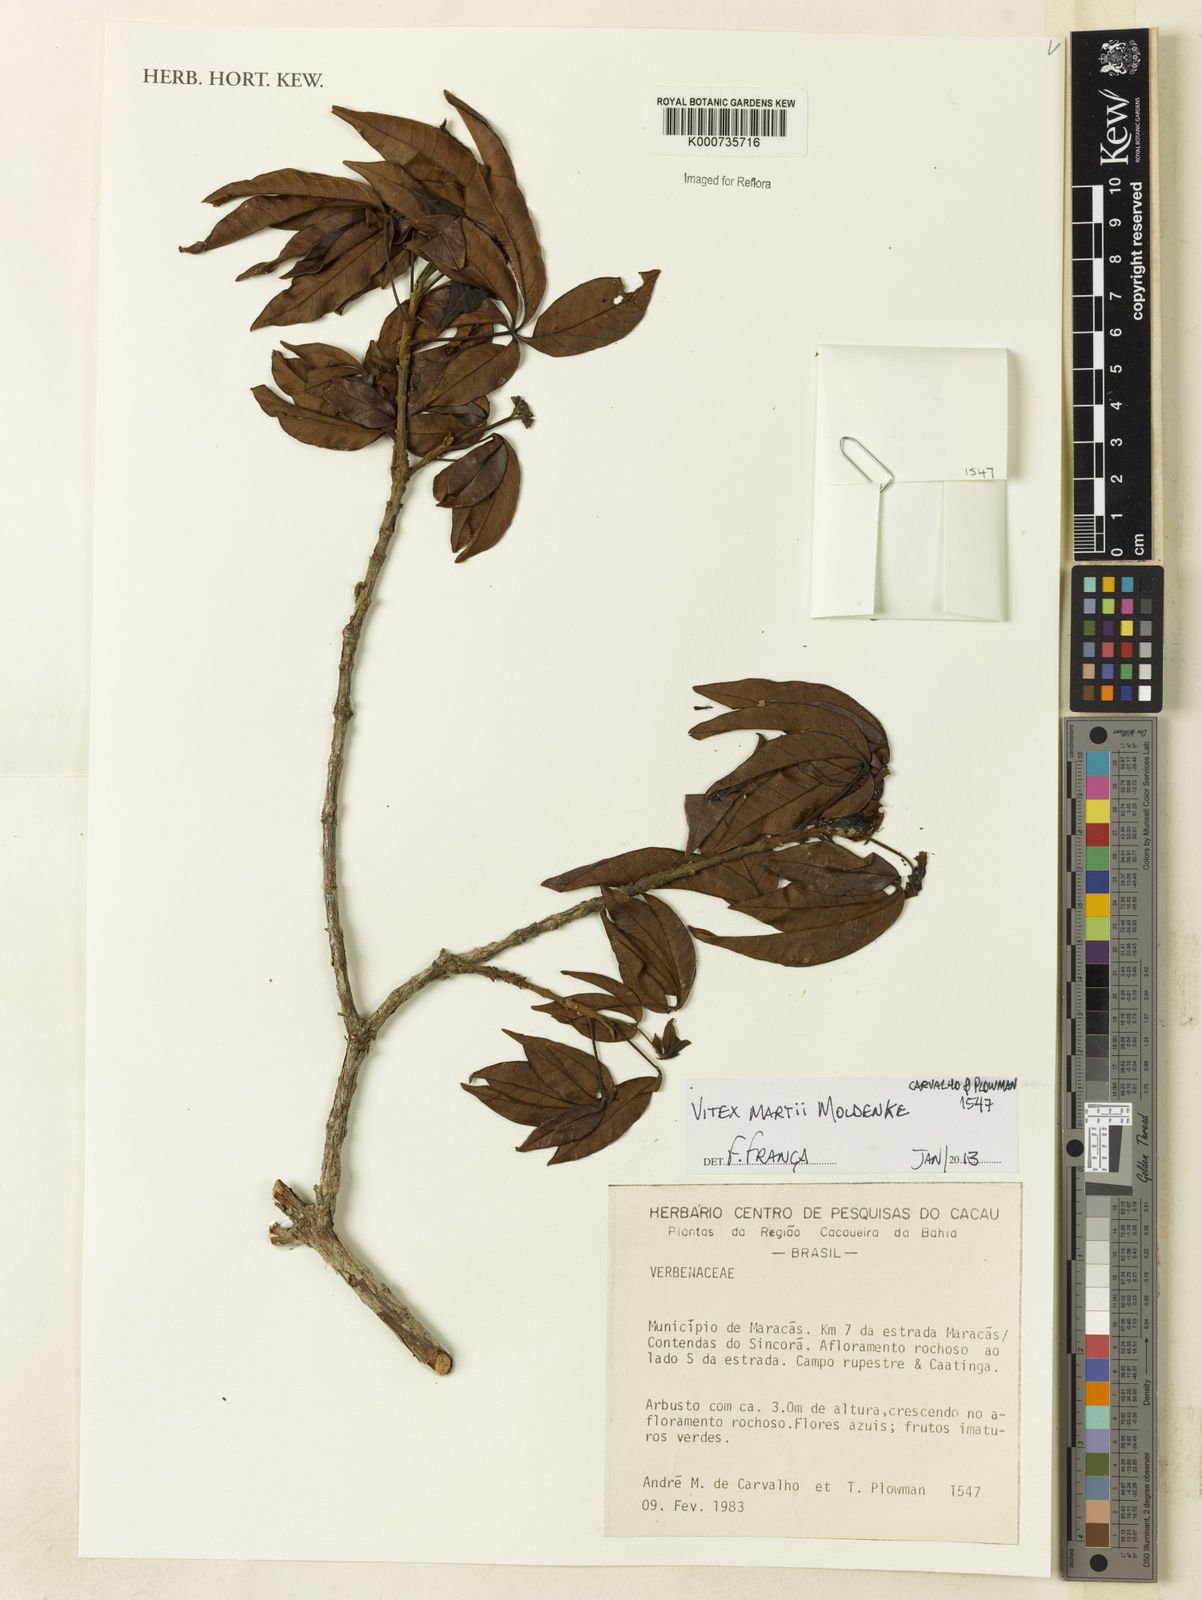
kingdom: Plantae
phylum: Tracheophyta
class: Magnoliopsida
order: Lamiales
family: Lamiaceae
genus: Vitex
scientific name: Vitex martii
